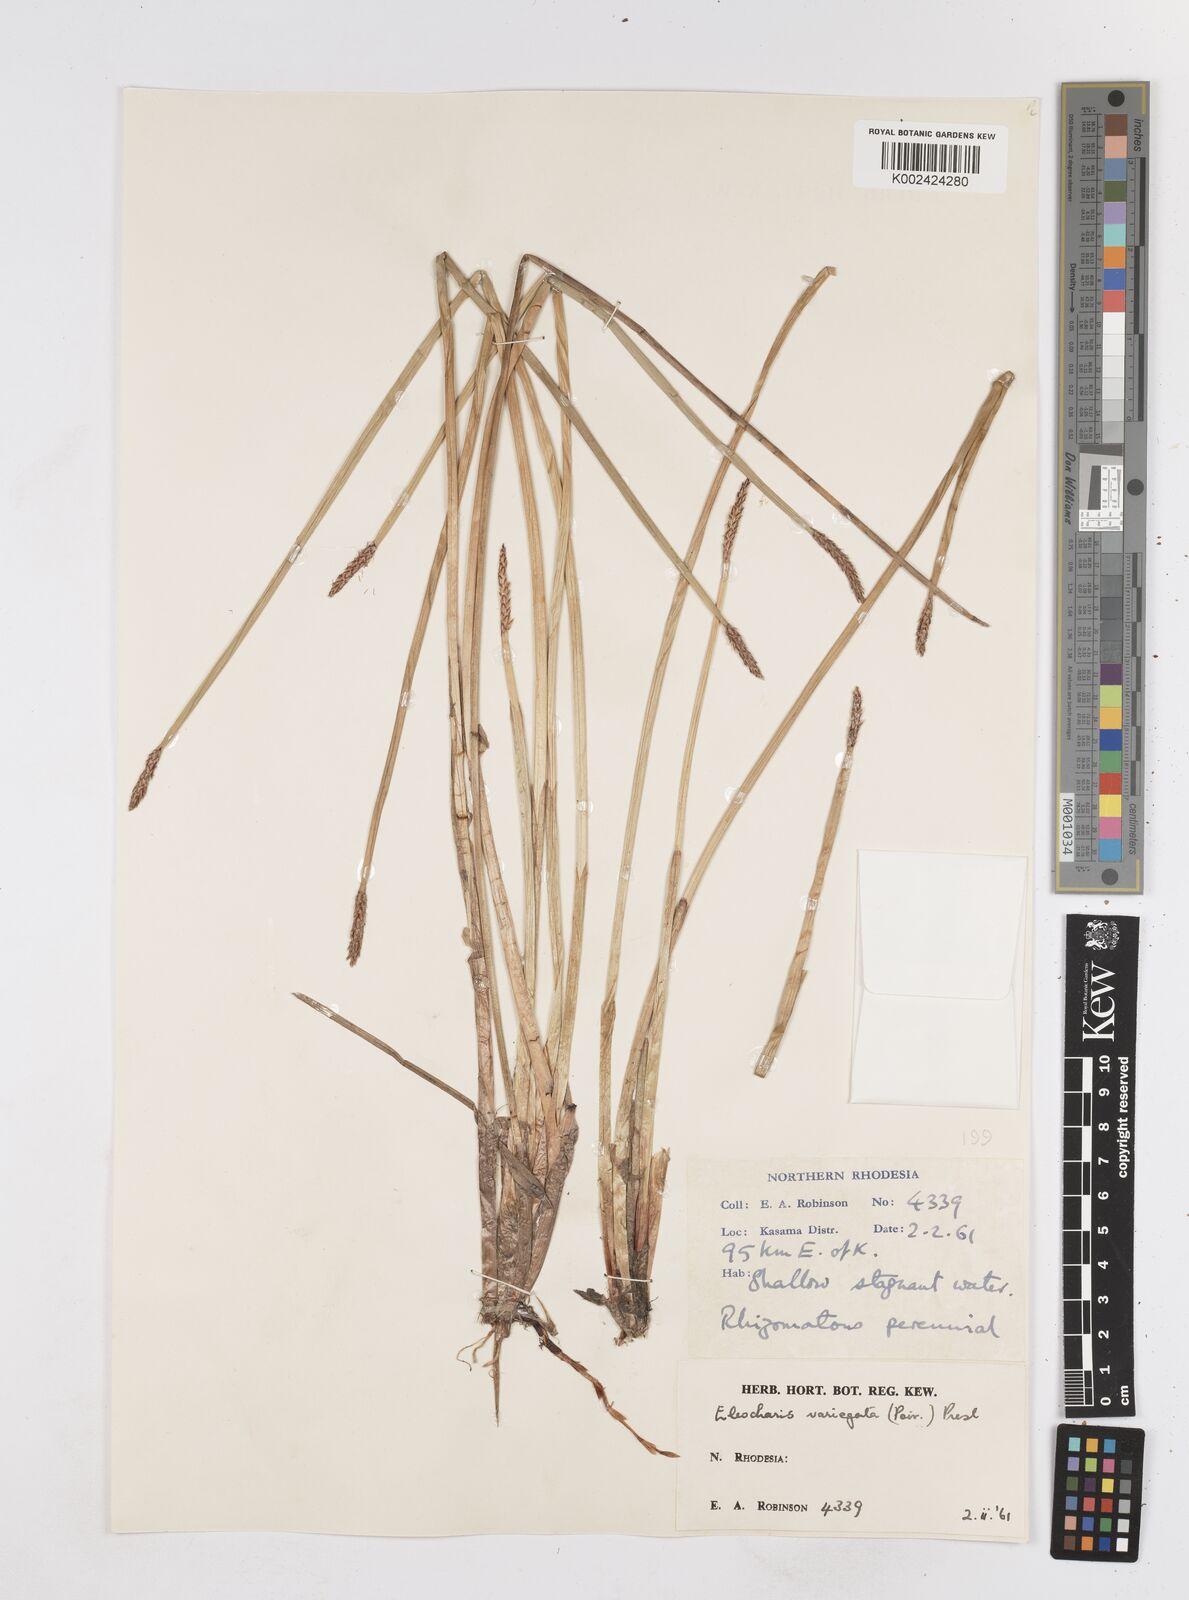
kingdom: Plantae
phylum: Tracheophyta
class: Liliopsida
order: Poales
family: Cyperaceae
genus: Eleocharis
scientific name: Eleocharis variegata
